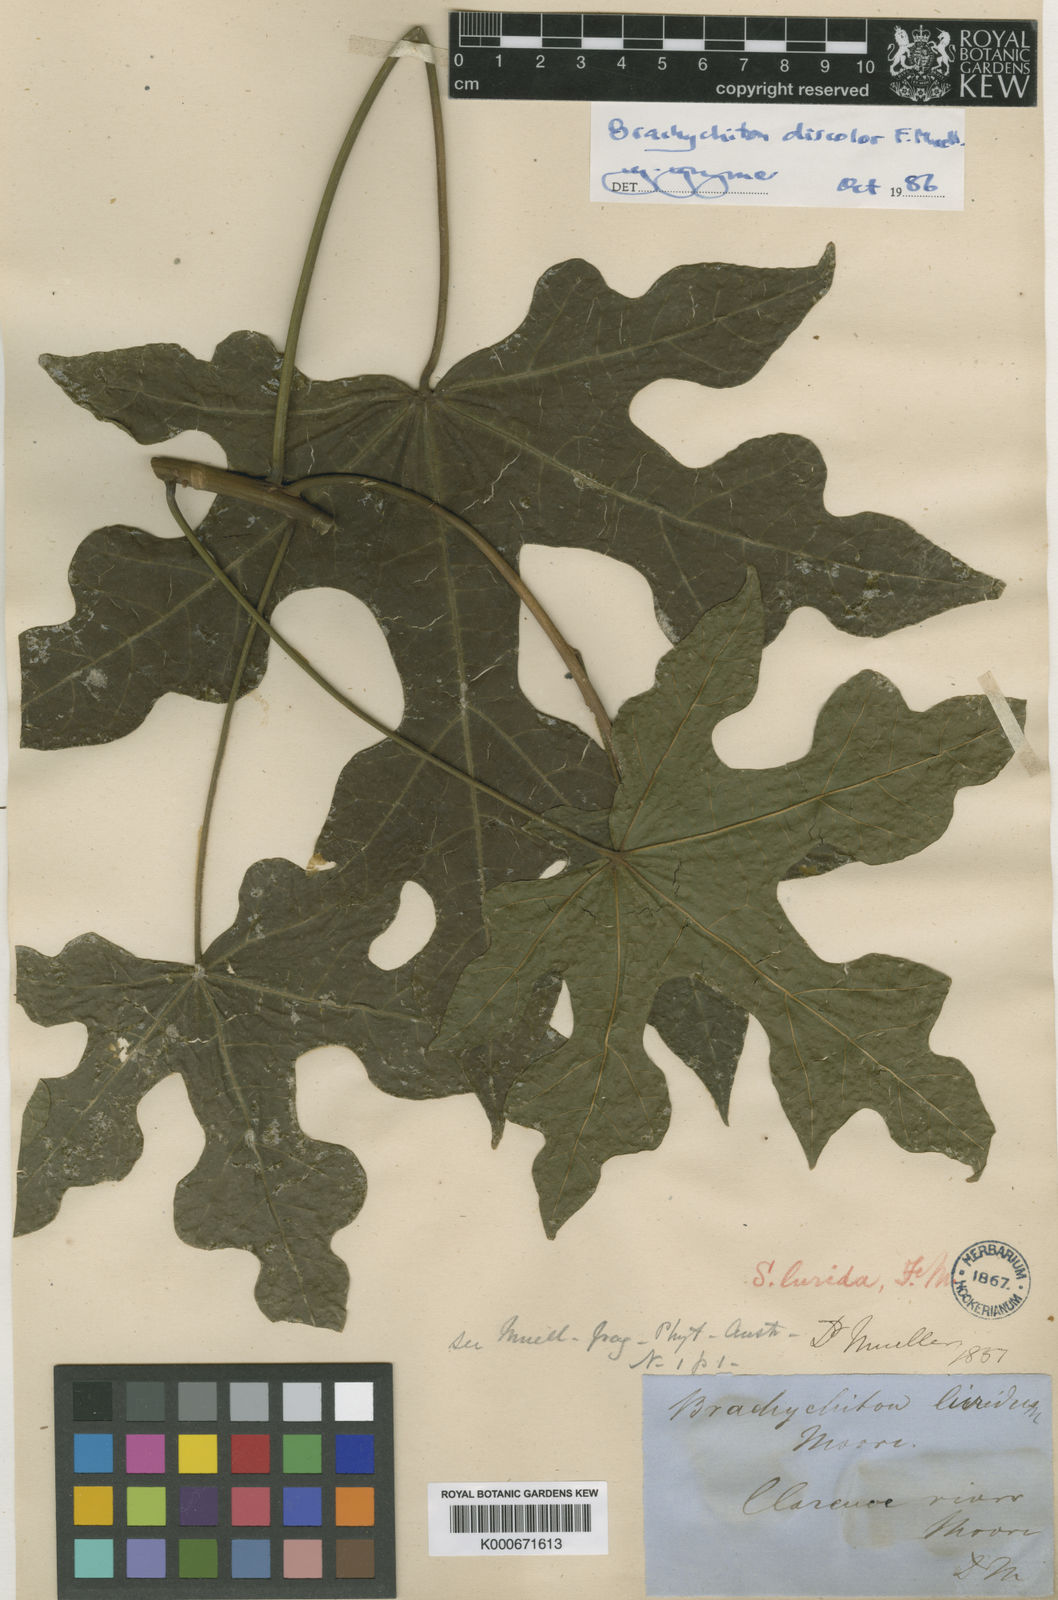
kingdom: Plantae
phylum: Tracheophyta
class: Magnoliopsida
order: Malvales
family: Malvaceae
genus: Brachychiton
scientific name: Brachychiton discolor
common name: Queensland lacebark
